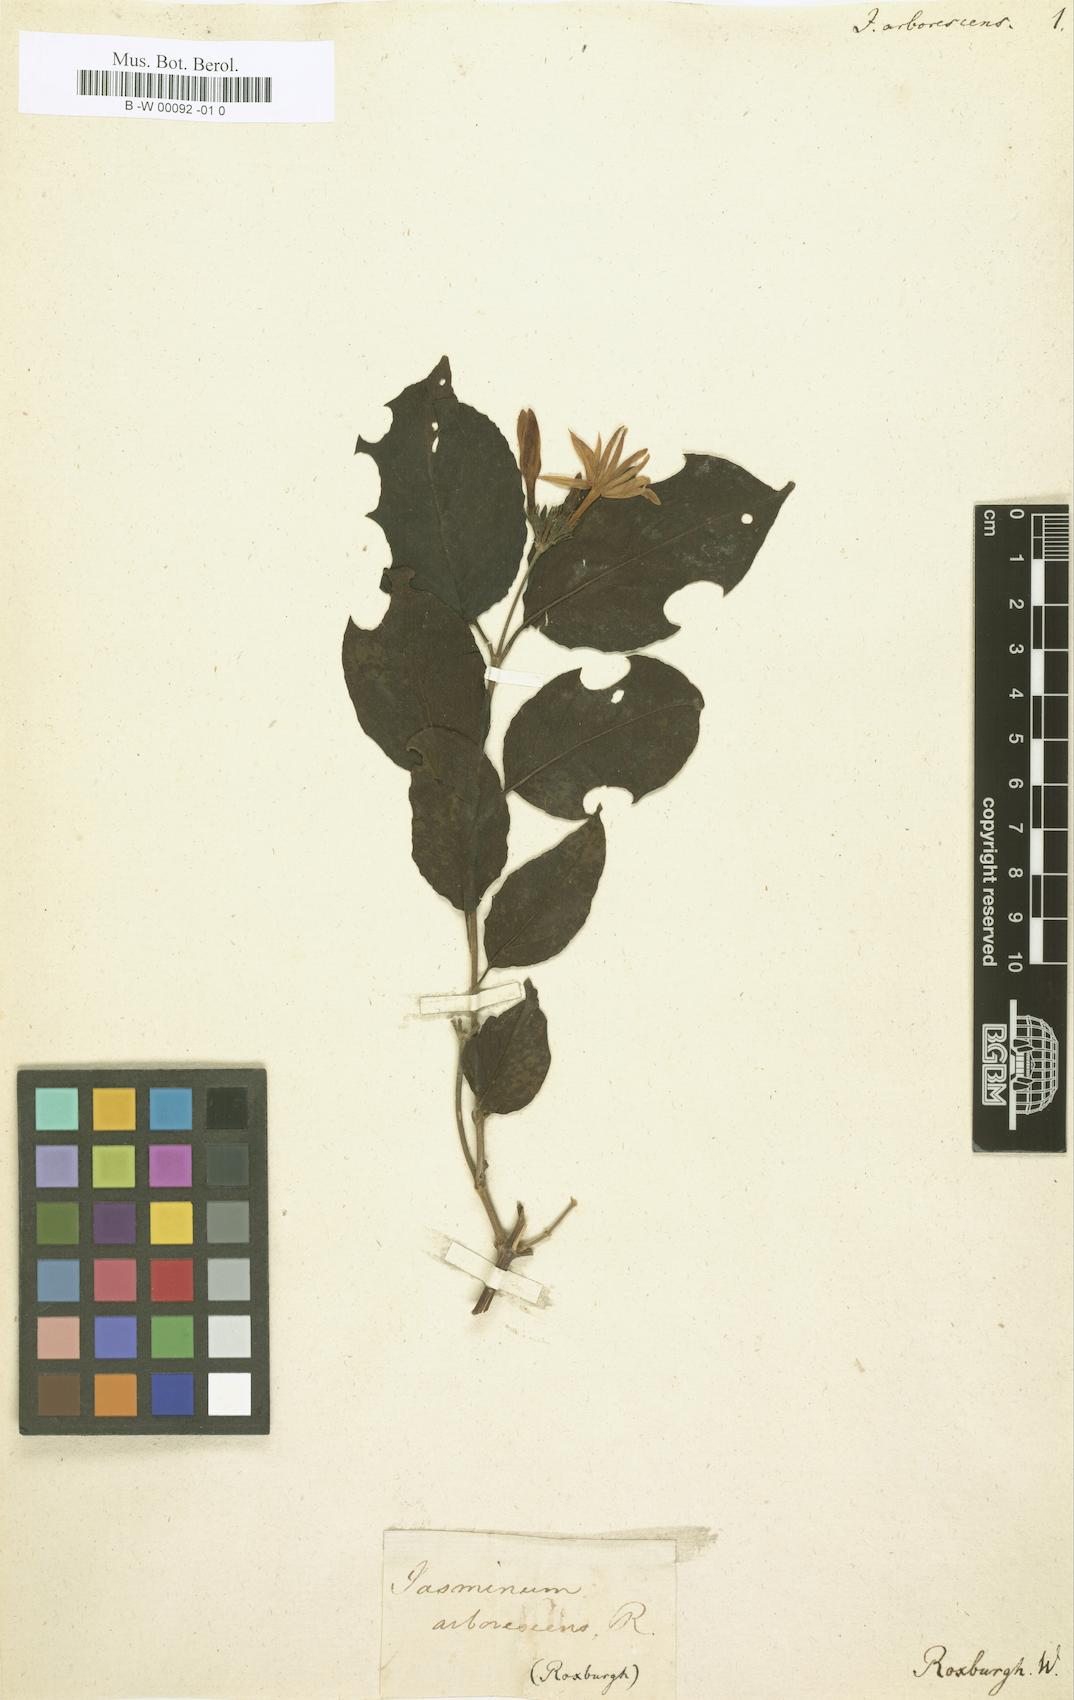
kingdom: Plantae
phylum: Tracheophyta
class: Magnoliopsida
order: Lamiales
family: Oleaceae
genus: Jasminum
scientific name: Jasminum arborescens
